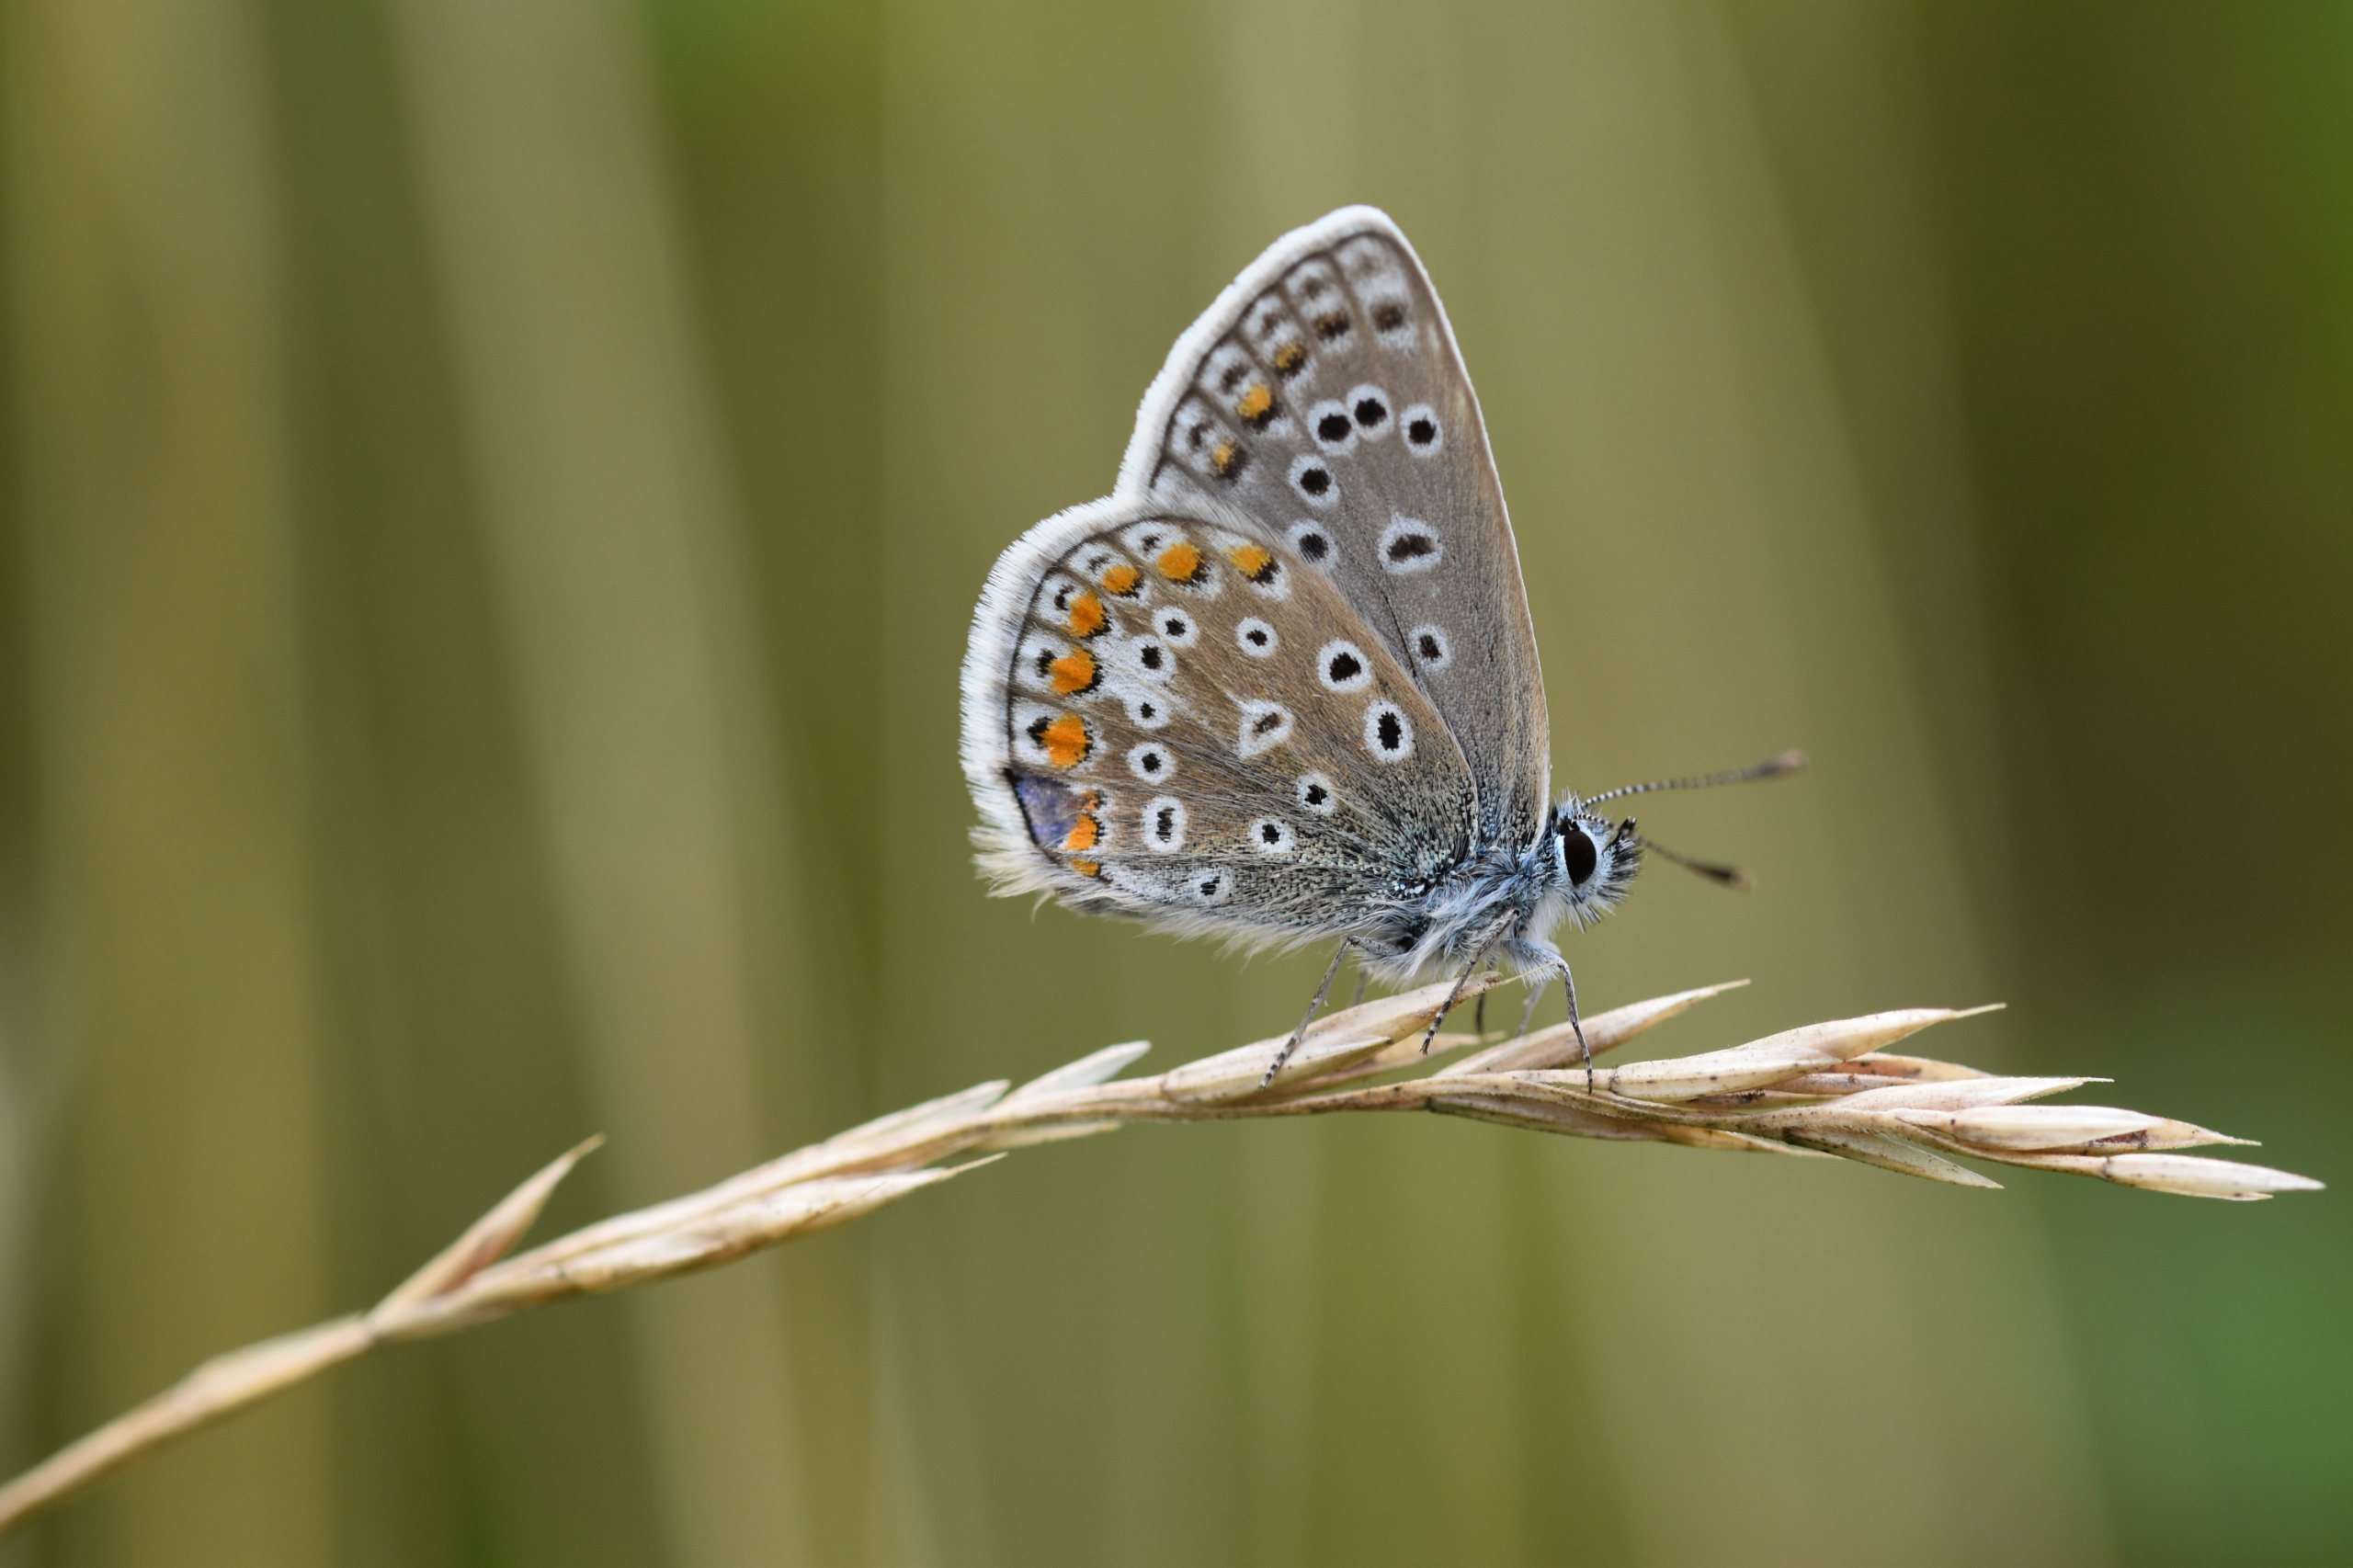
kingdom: Animalia
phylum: Arthropoda
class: Insecta
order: Lepidoptera
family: Lycaenidae
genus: Polyommatus
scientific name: Polyommatus icarus
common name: Almindelig blåfugl
